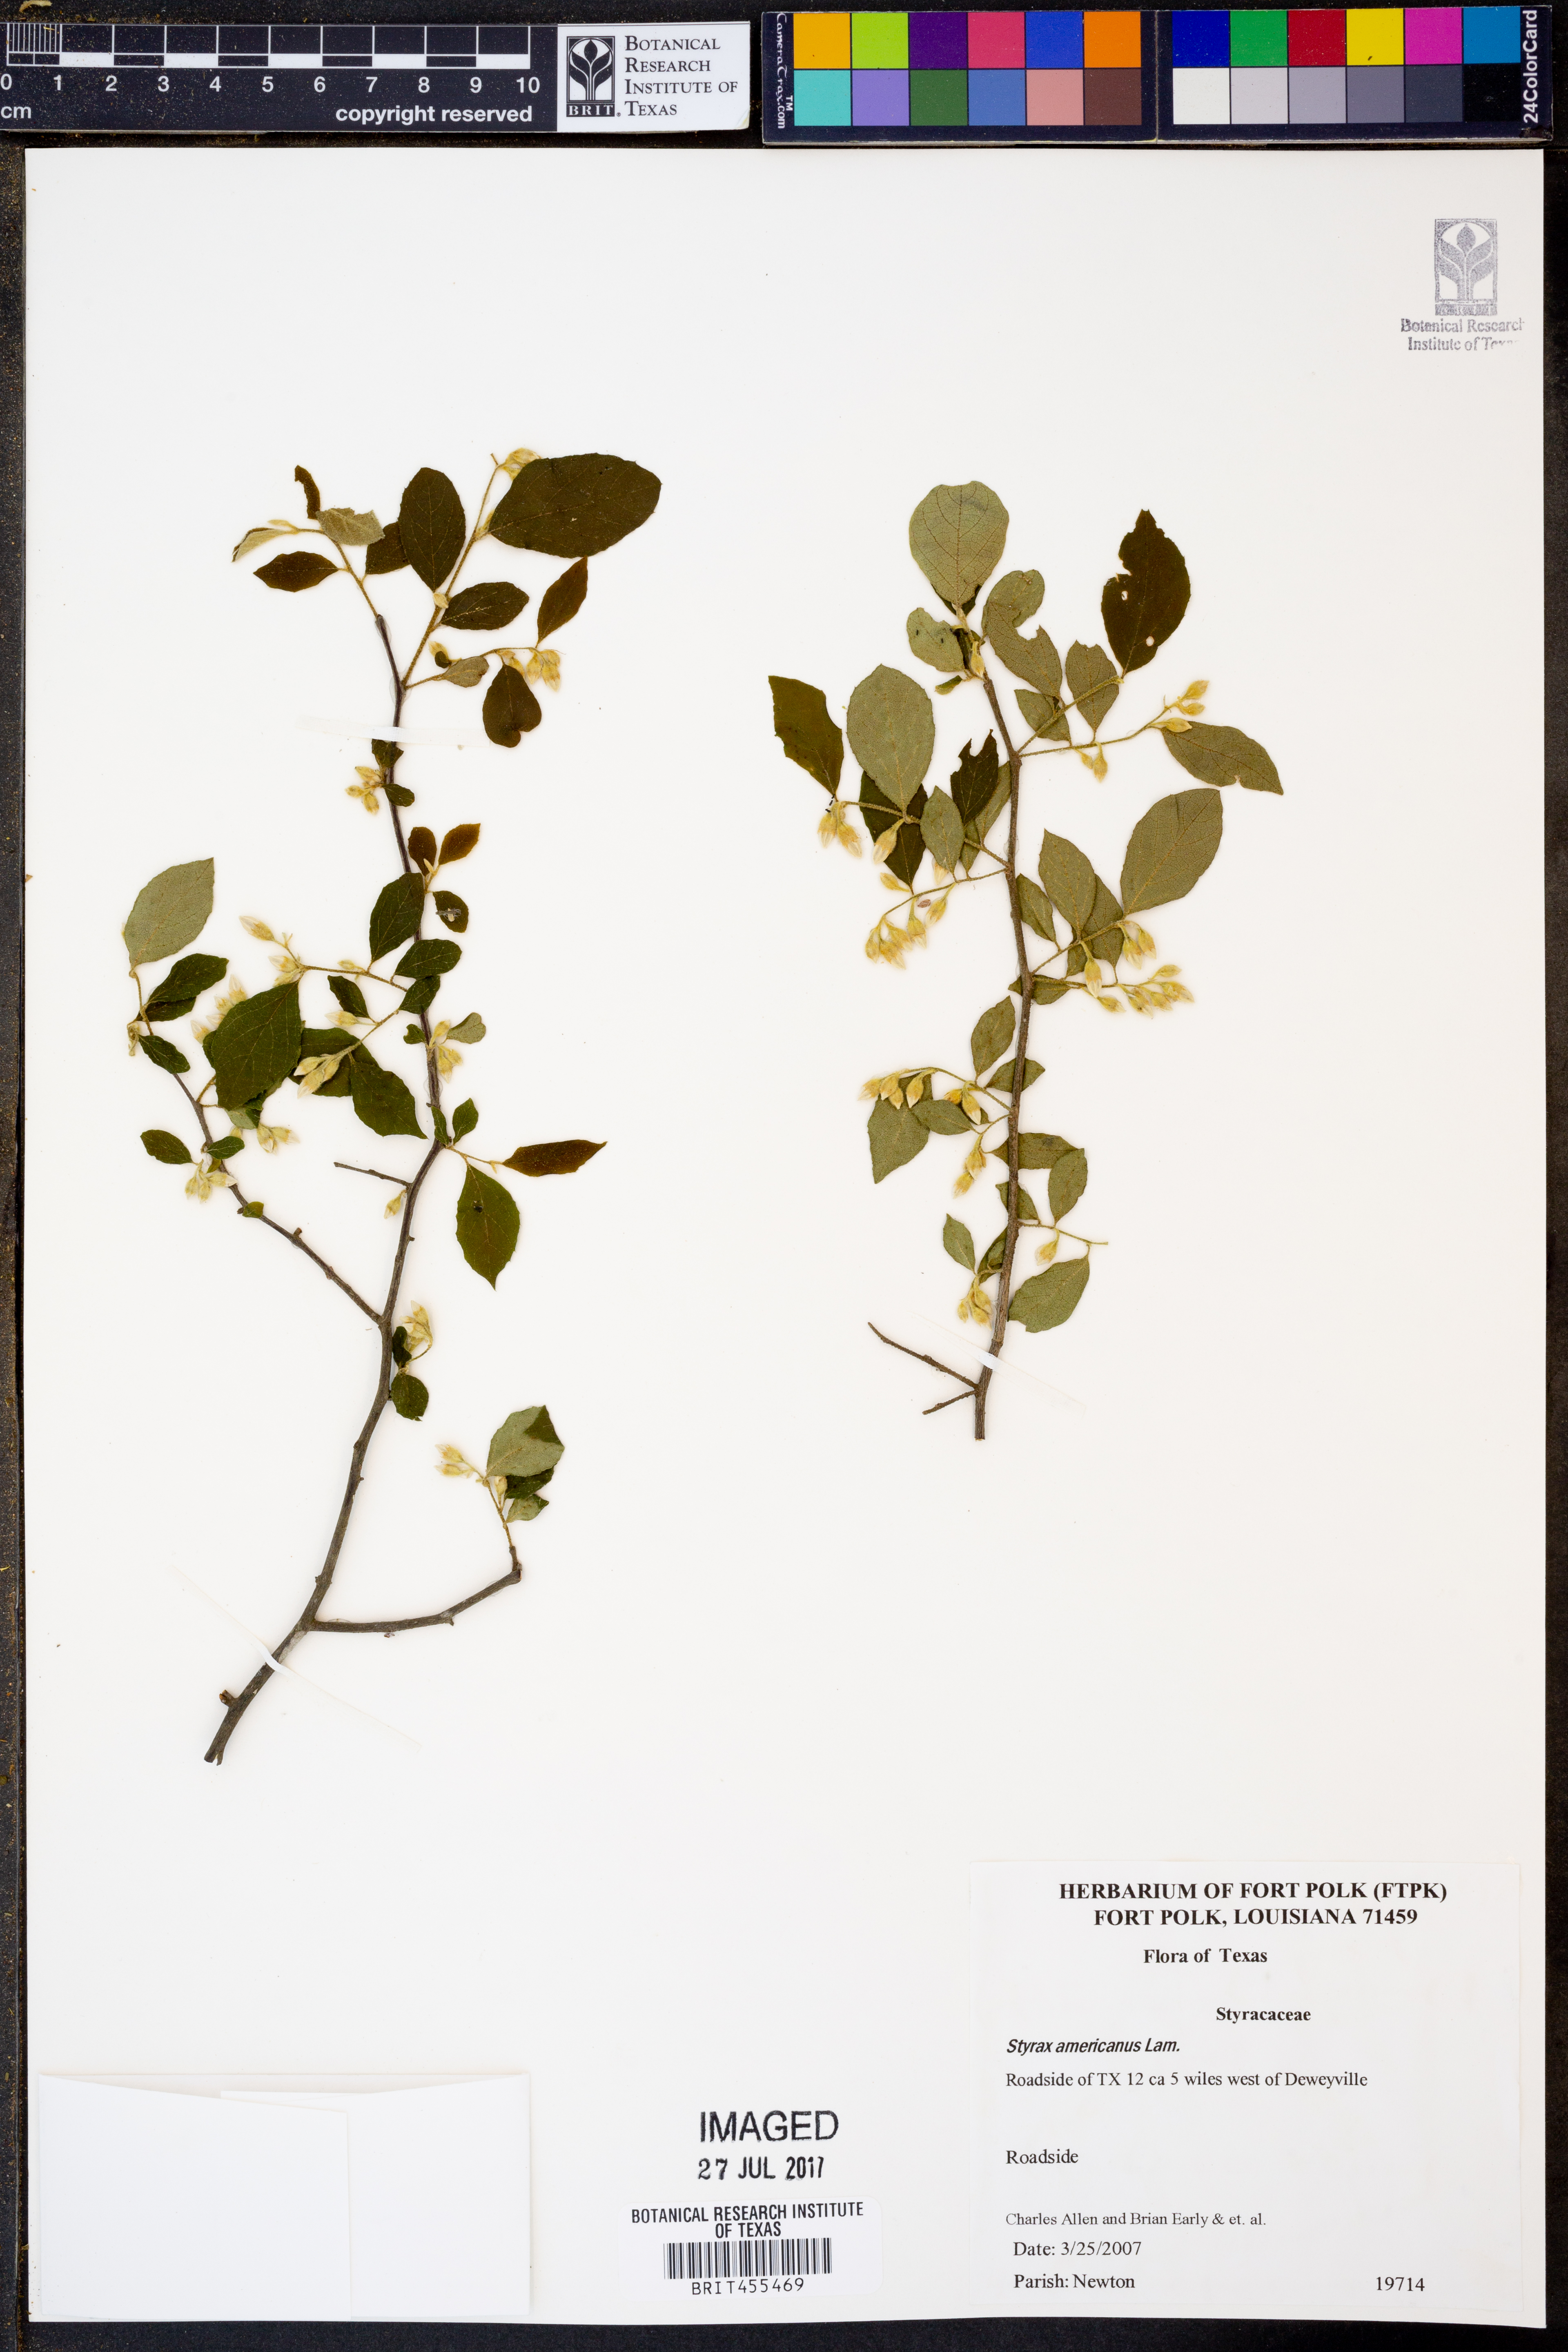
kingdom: Plantae
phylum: Tracheophyta
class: Magnoliopsida
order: Ericales
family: Styracaceae
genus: Styrax
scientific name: Styrax americanus
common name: American snowbell
